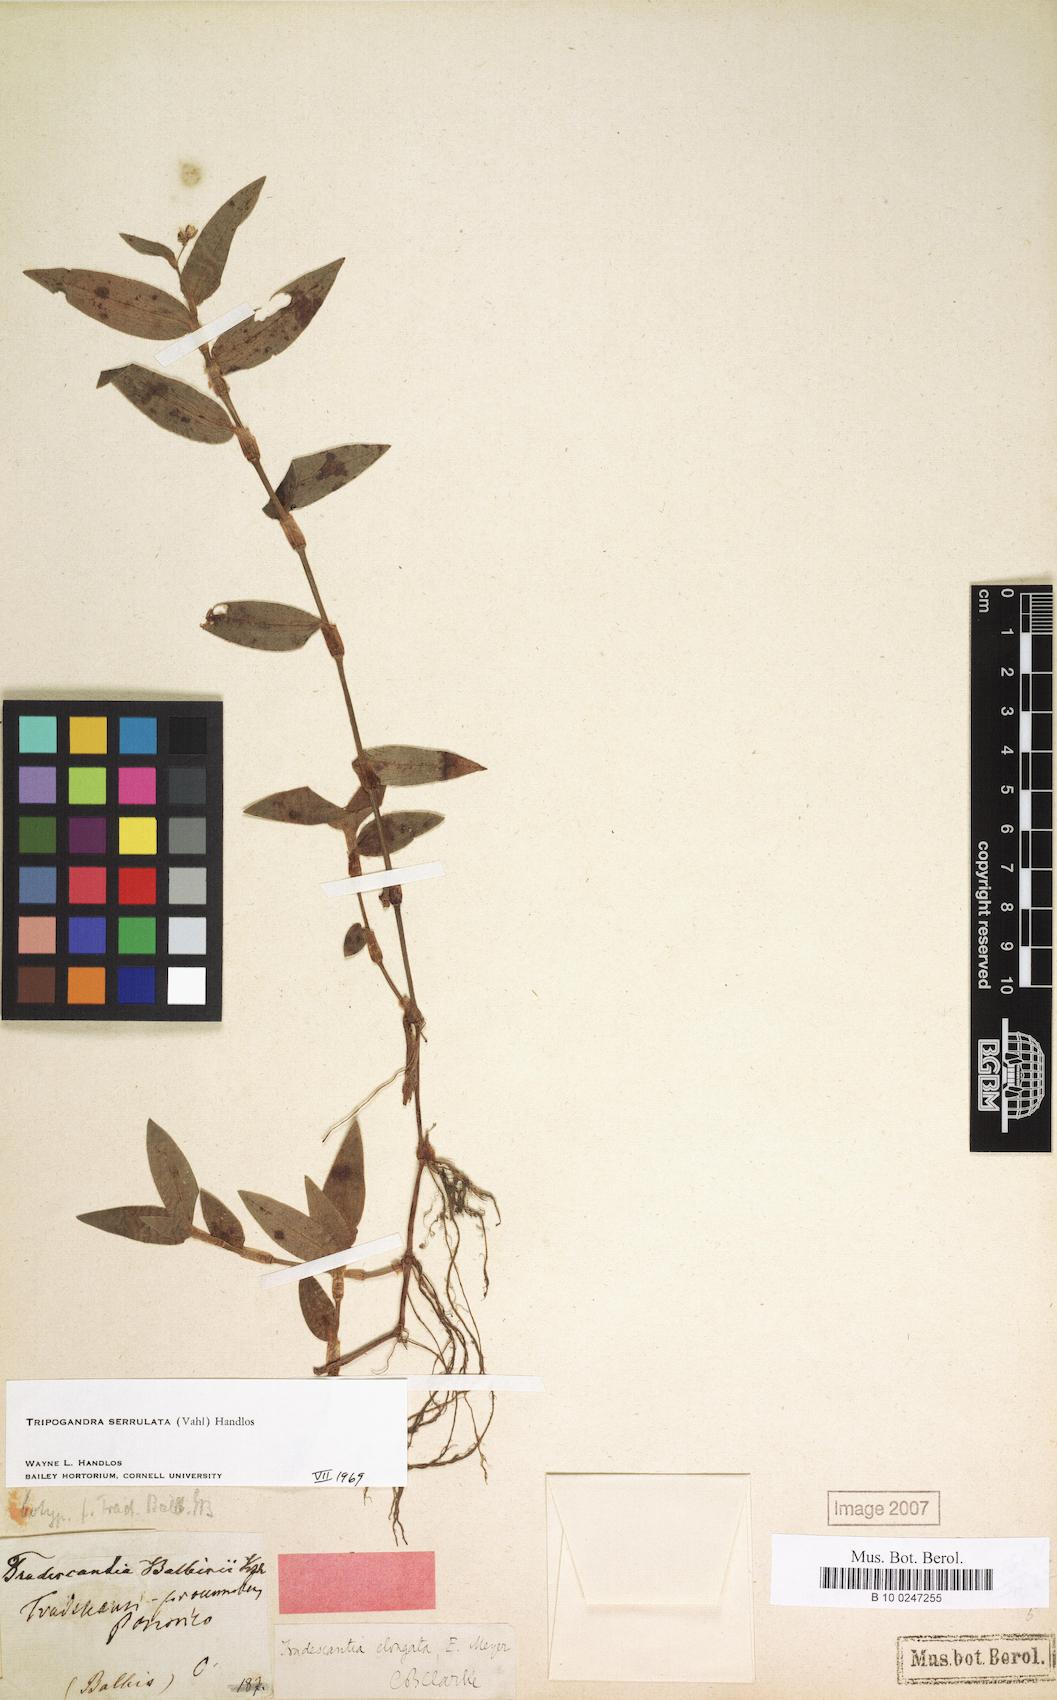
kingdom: Plantae
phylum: Tracheophyta
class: Liliopsida
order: Commelinales
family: Commelinaceae
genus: Callisia
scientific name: Callisia serrulata
